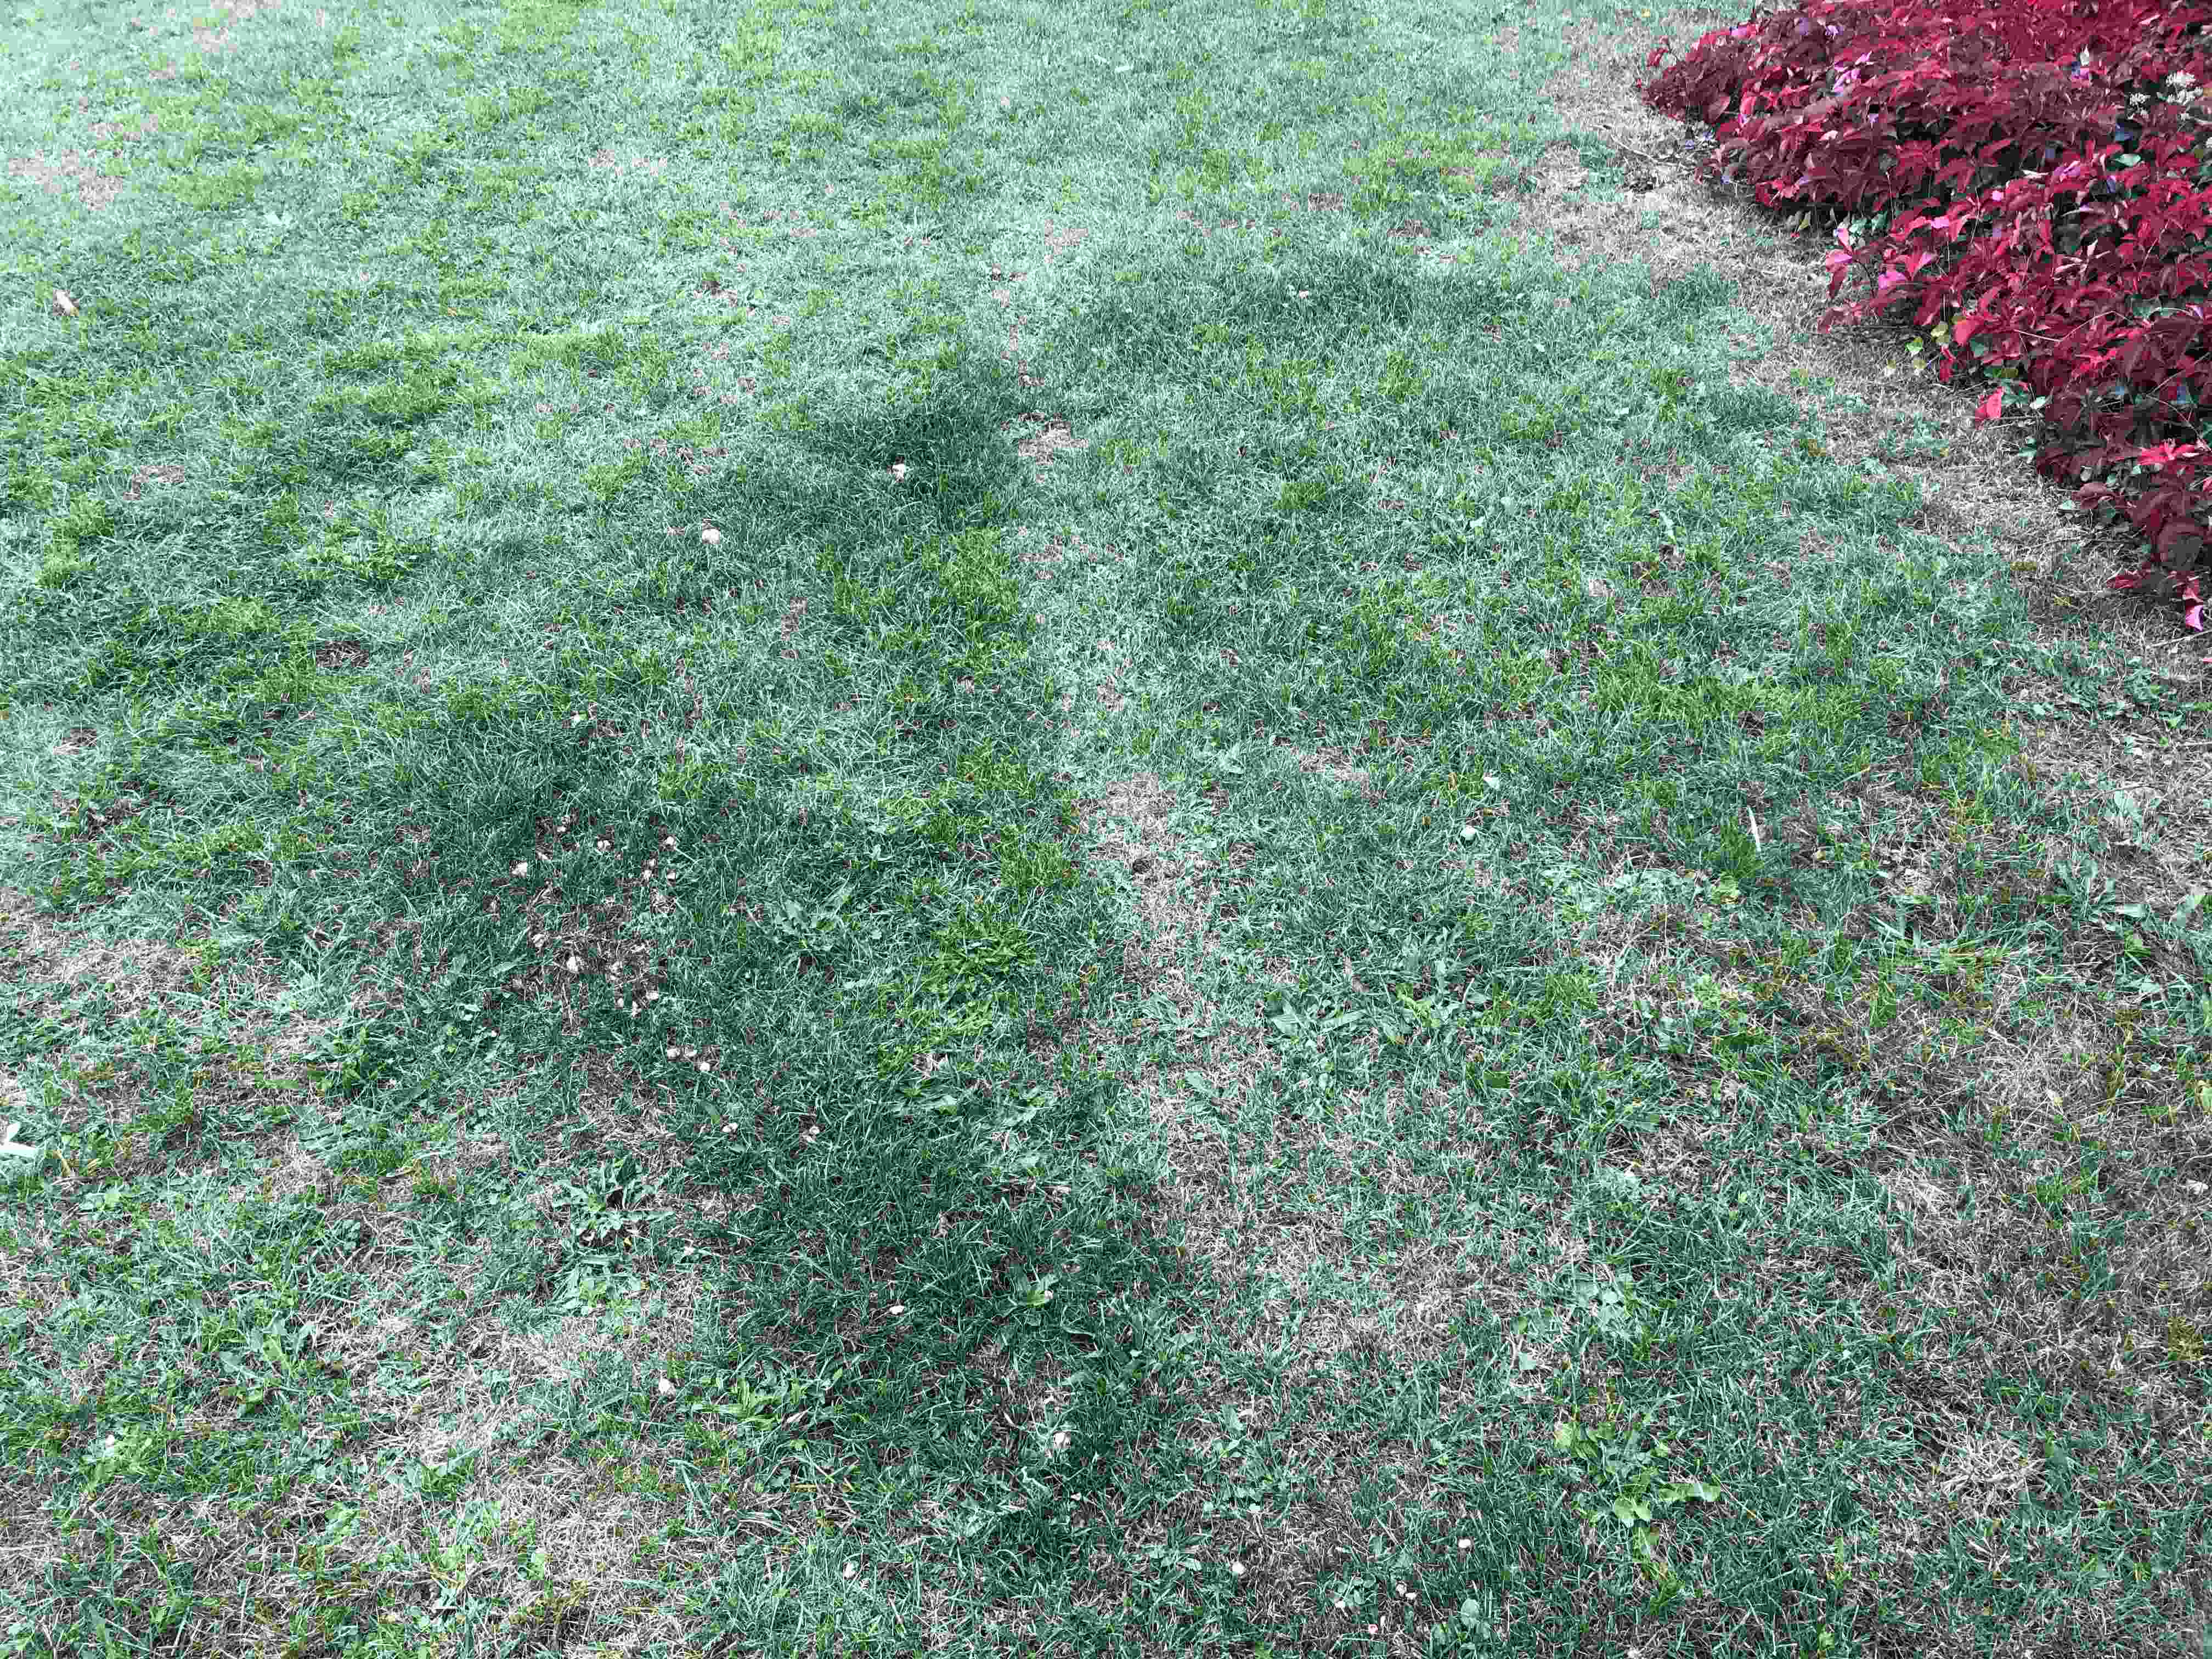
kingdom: Fungi
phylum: Basidiomycota
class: Agaricomycetes
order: Agaricales
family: Marasmiaceae
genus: Marasmius
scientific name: Marasmius oreades
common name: elledans-bruskhat
